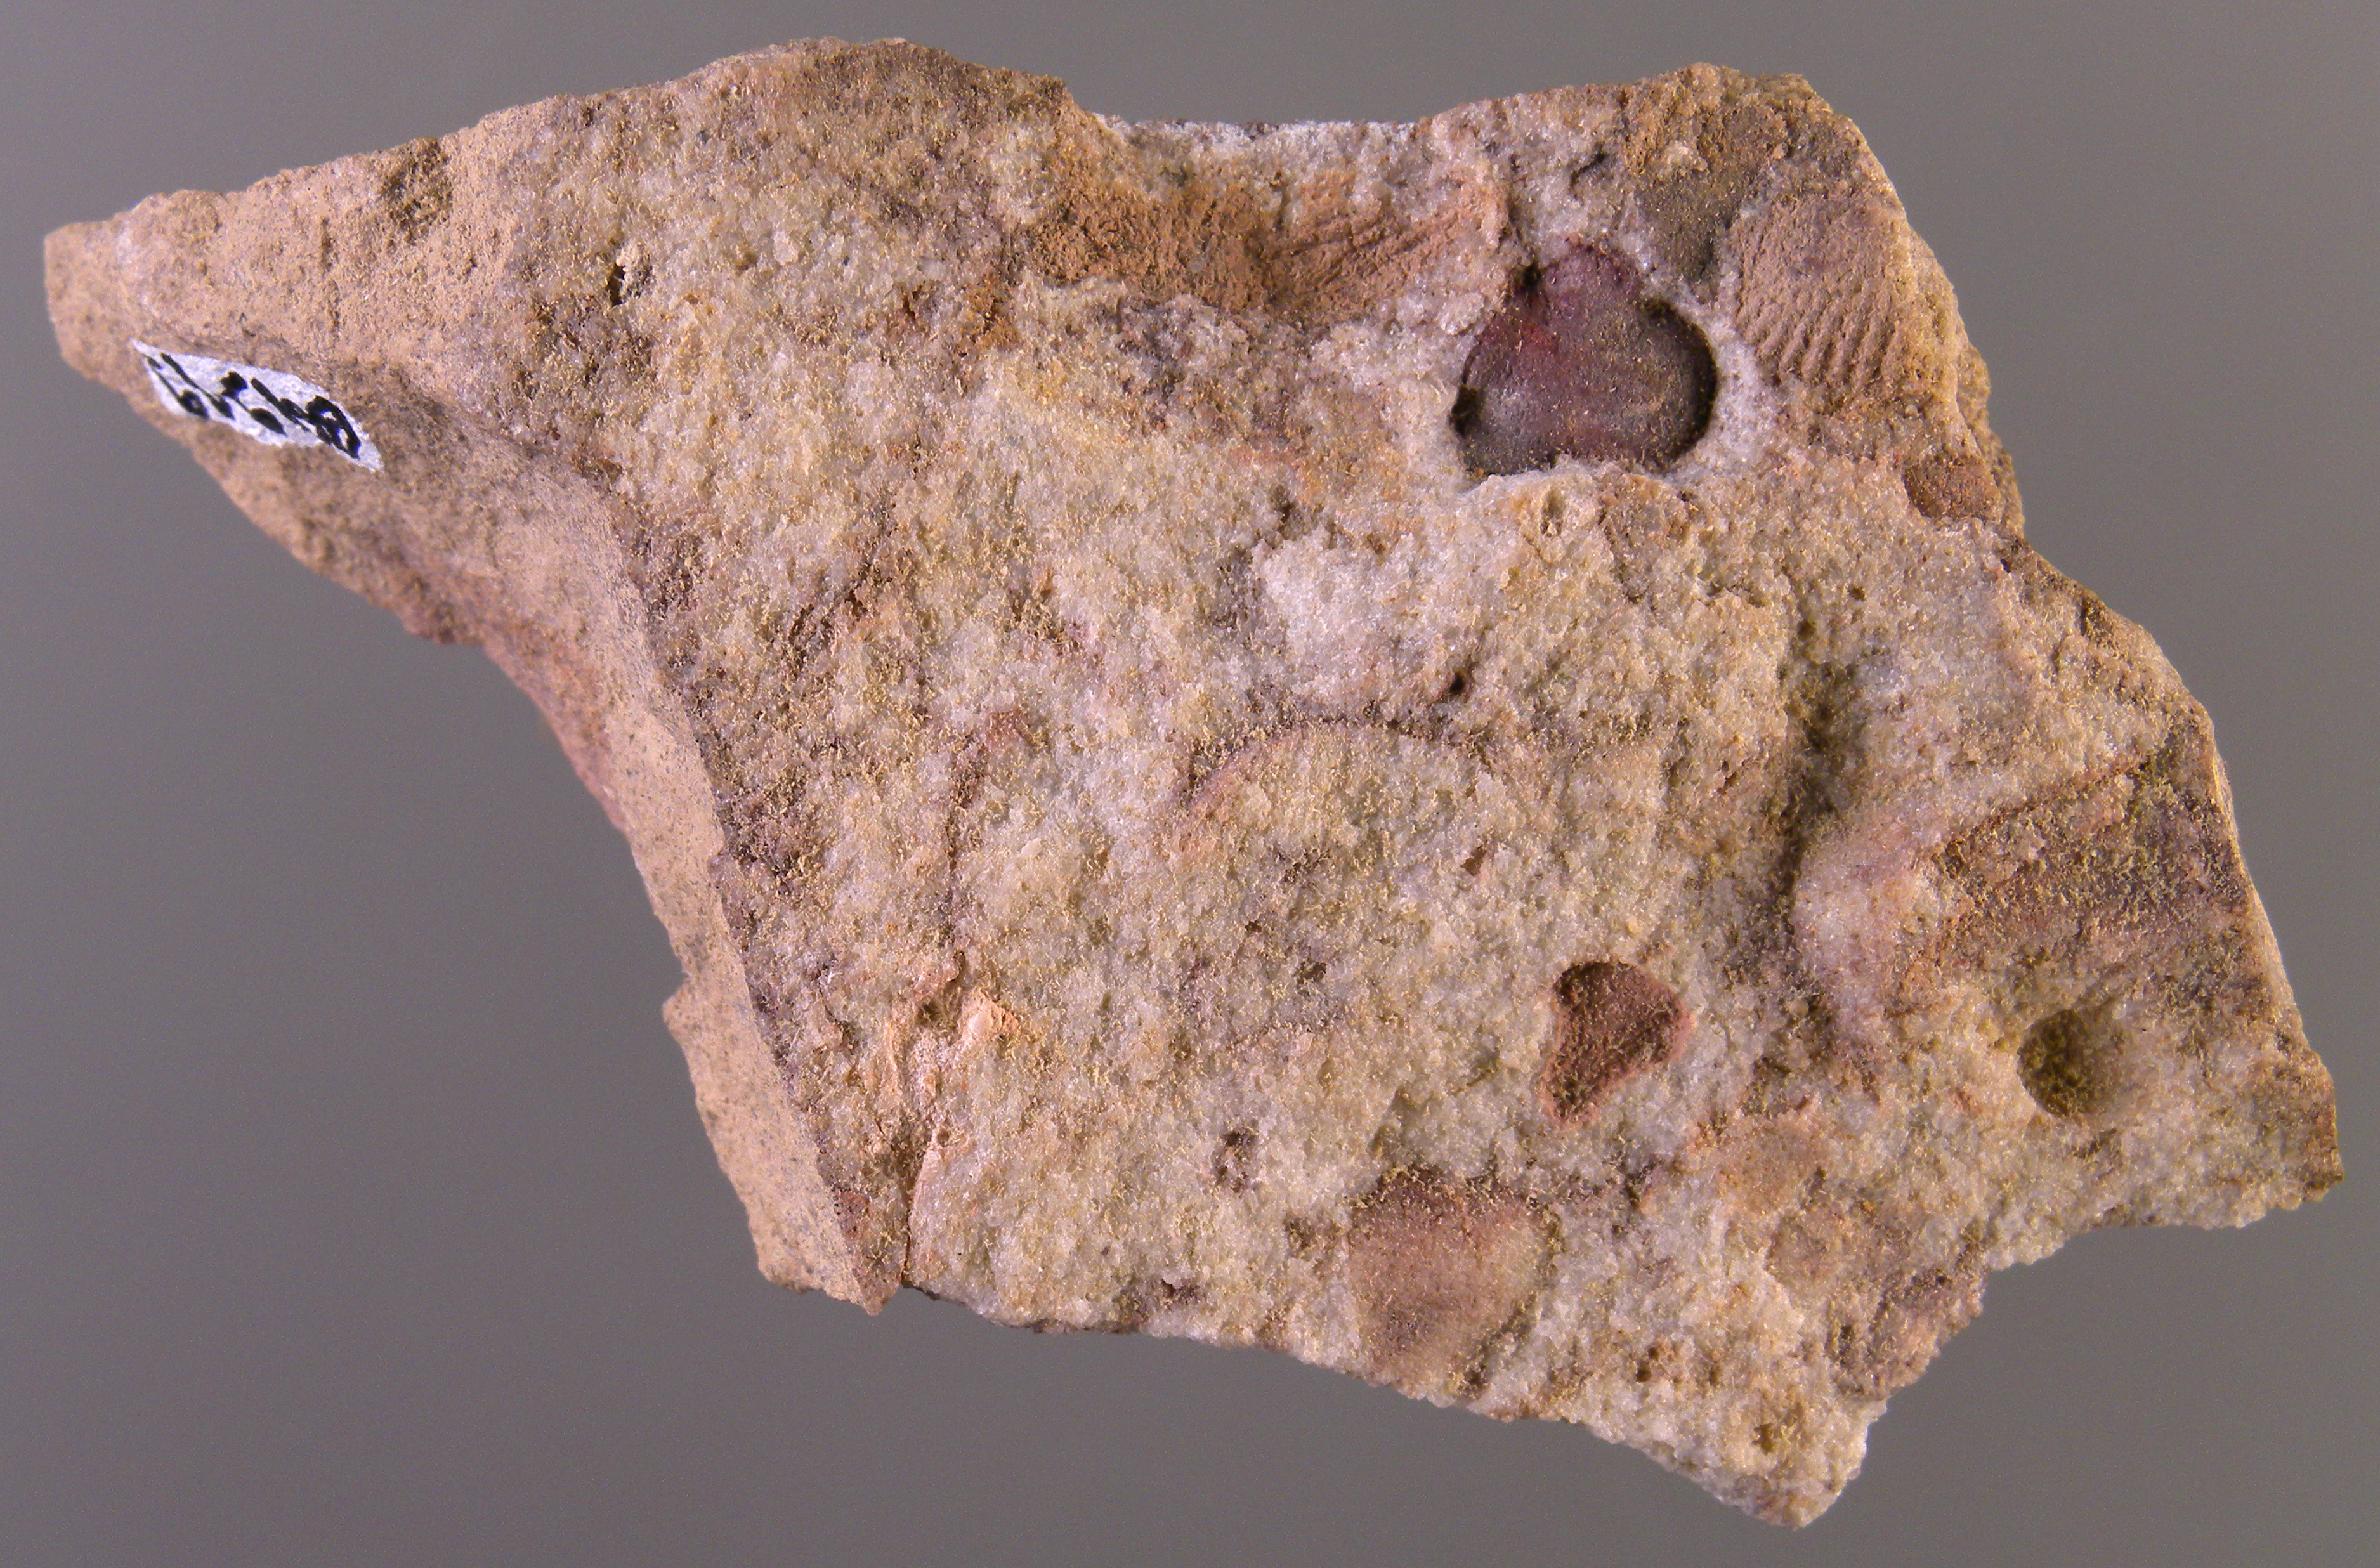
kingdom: Animalia
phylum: Arthropoda
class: Trilobita
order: Phacopida
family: Acastidae
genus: Acastava
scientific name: Acastava
